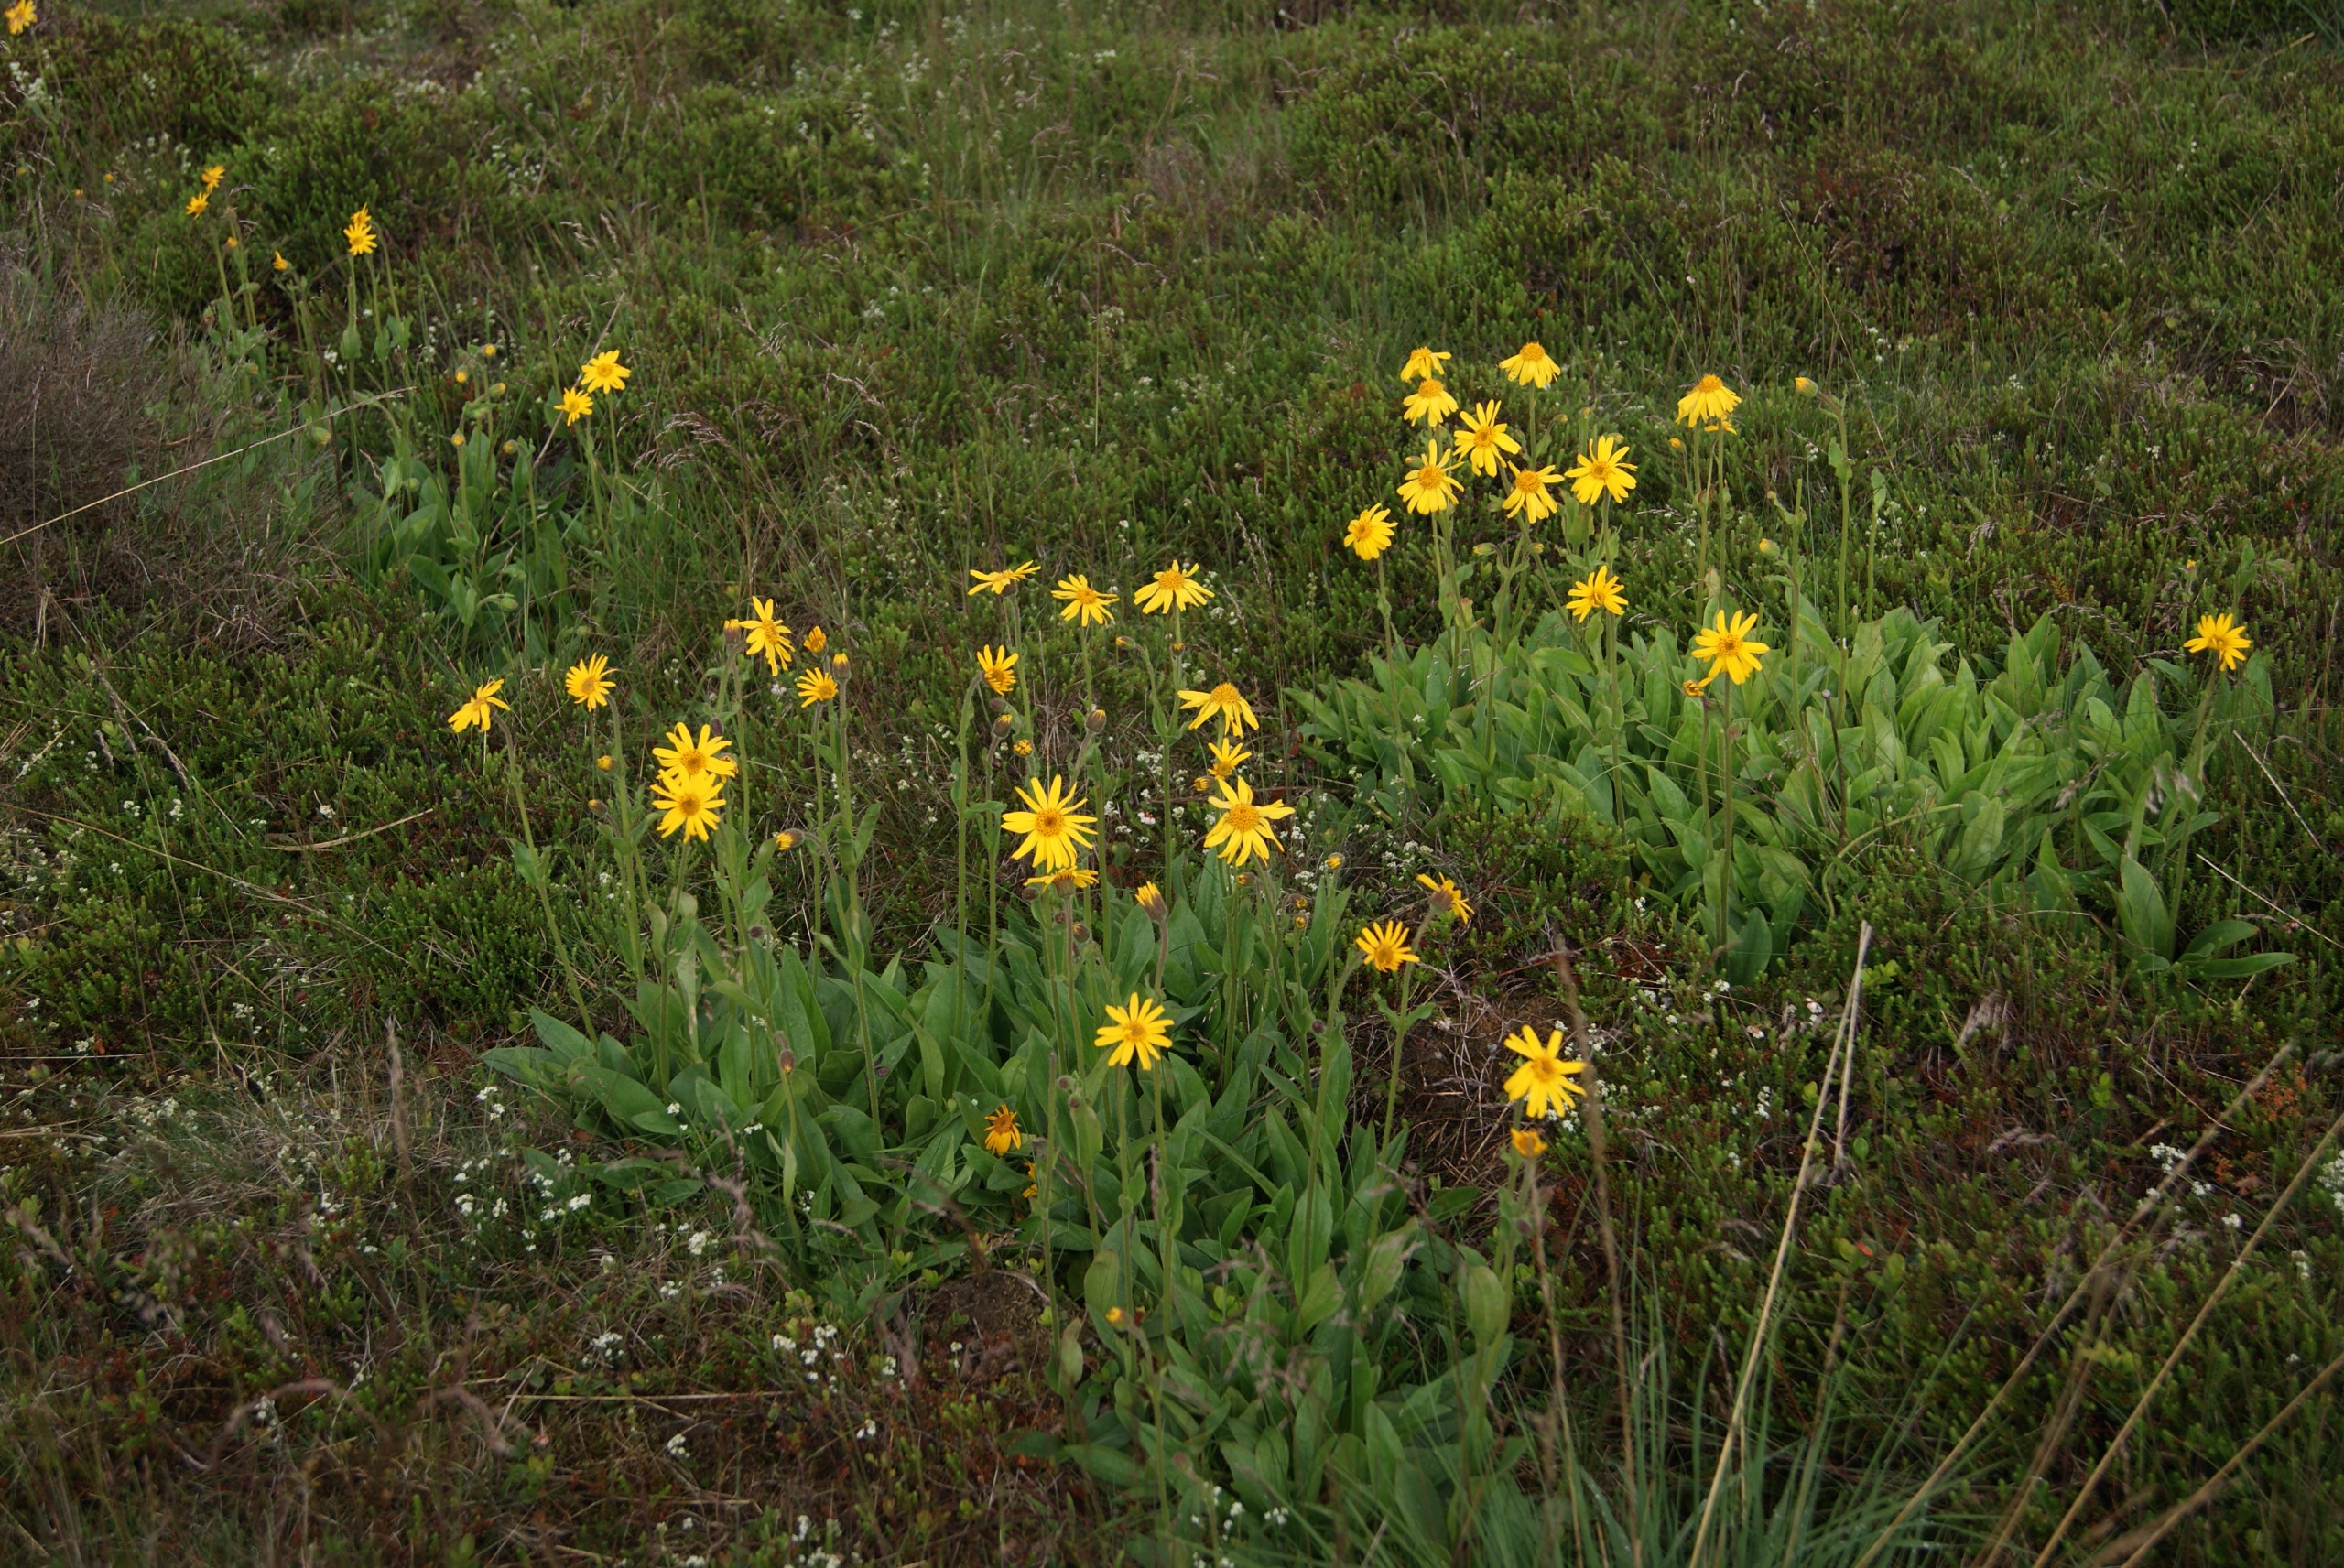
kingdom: Plantae
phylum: Tracheophyta
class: Magnoliopsida
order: Asterales
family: Asteraceae
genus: Arnica
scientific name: Arnica montana
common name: Guldblomme
